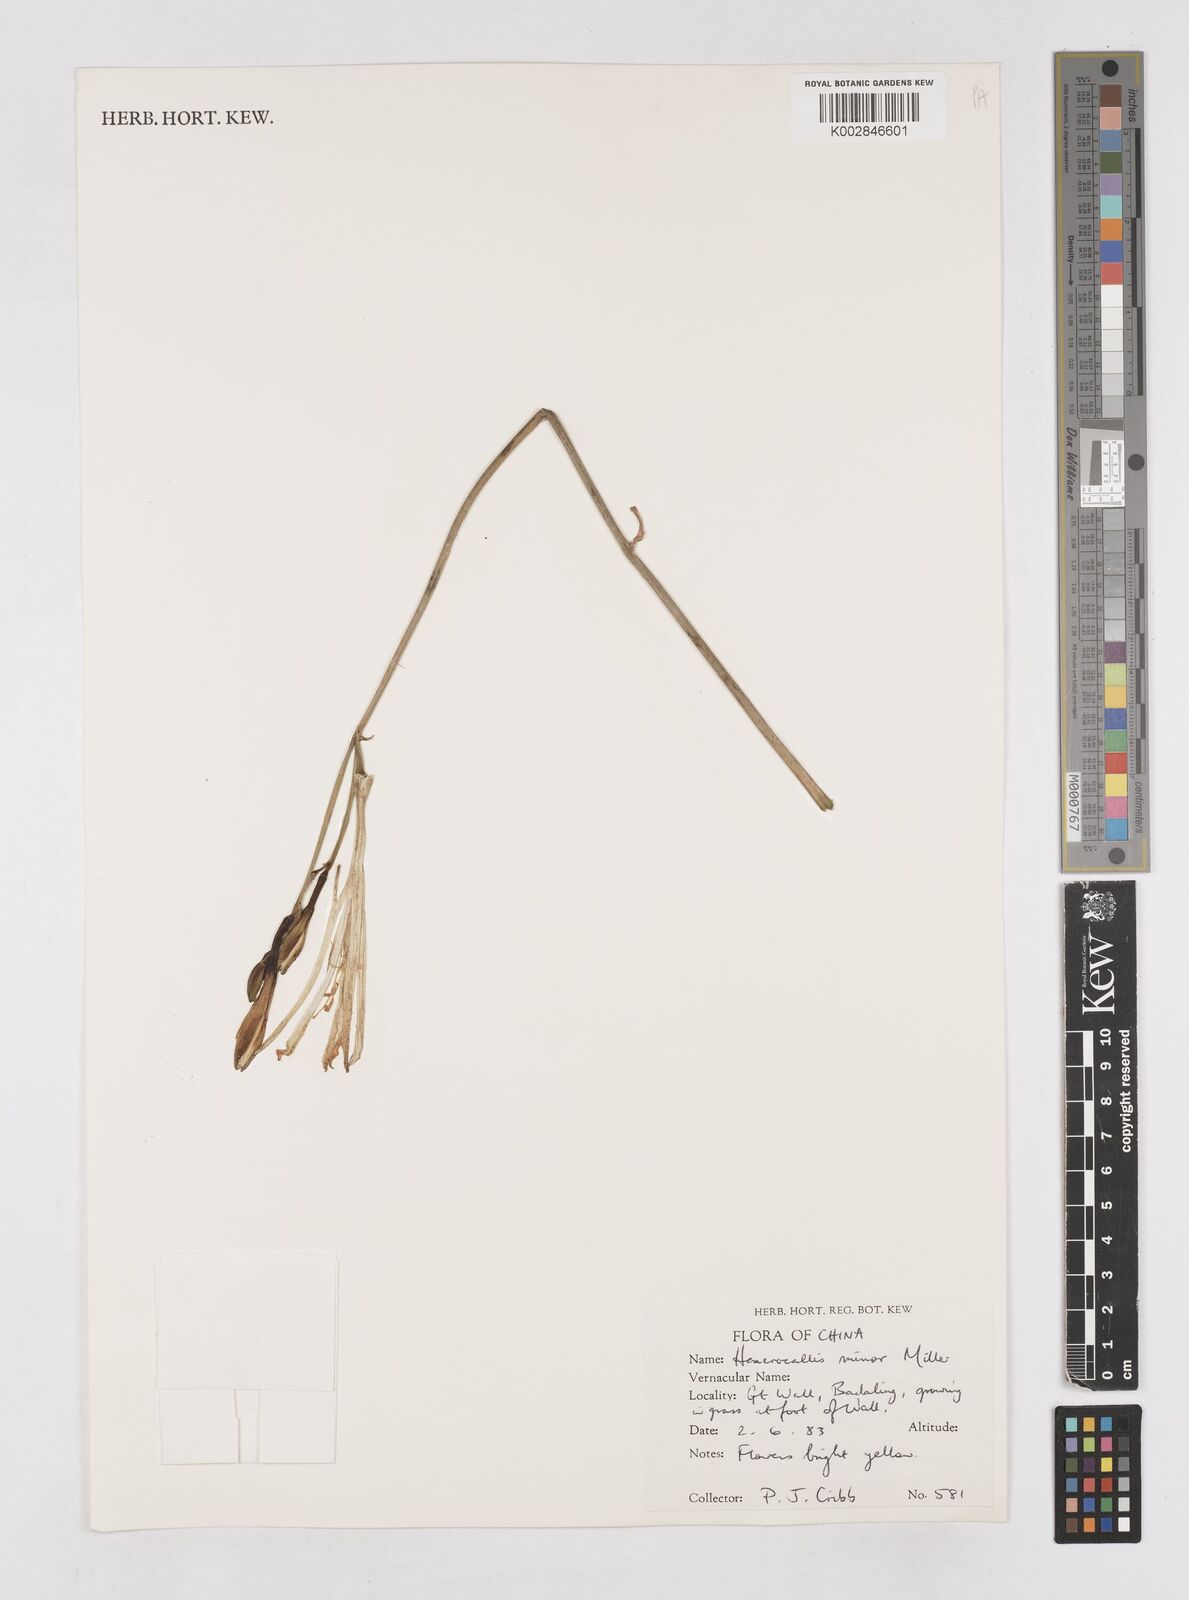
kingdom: Plantae
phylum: Tracheophyta
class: Liliopsida
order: Asparagales
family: Asphodelaceae
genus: Hemerocallis
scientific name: Hemerocallis minor
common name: Small daylily
